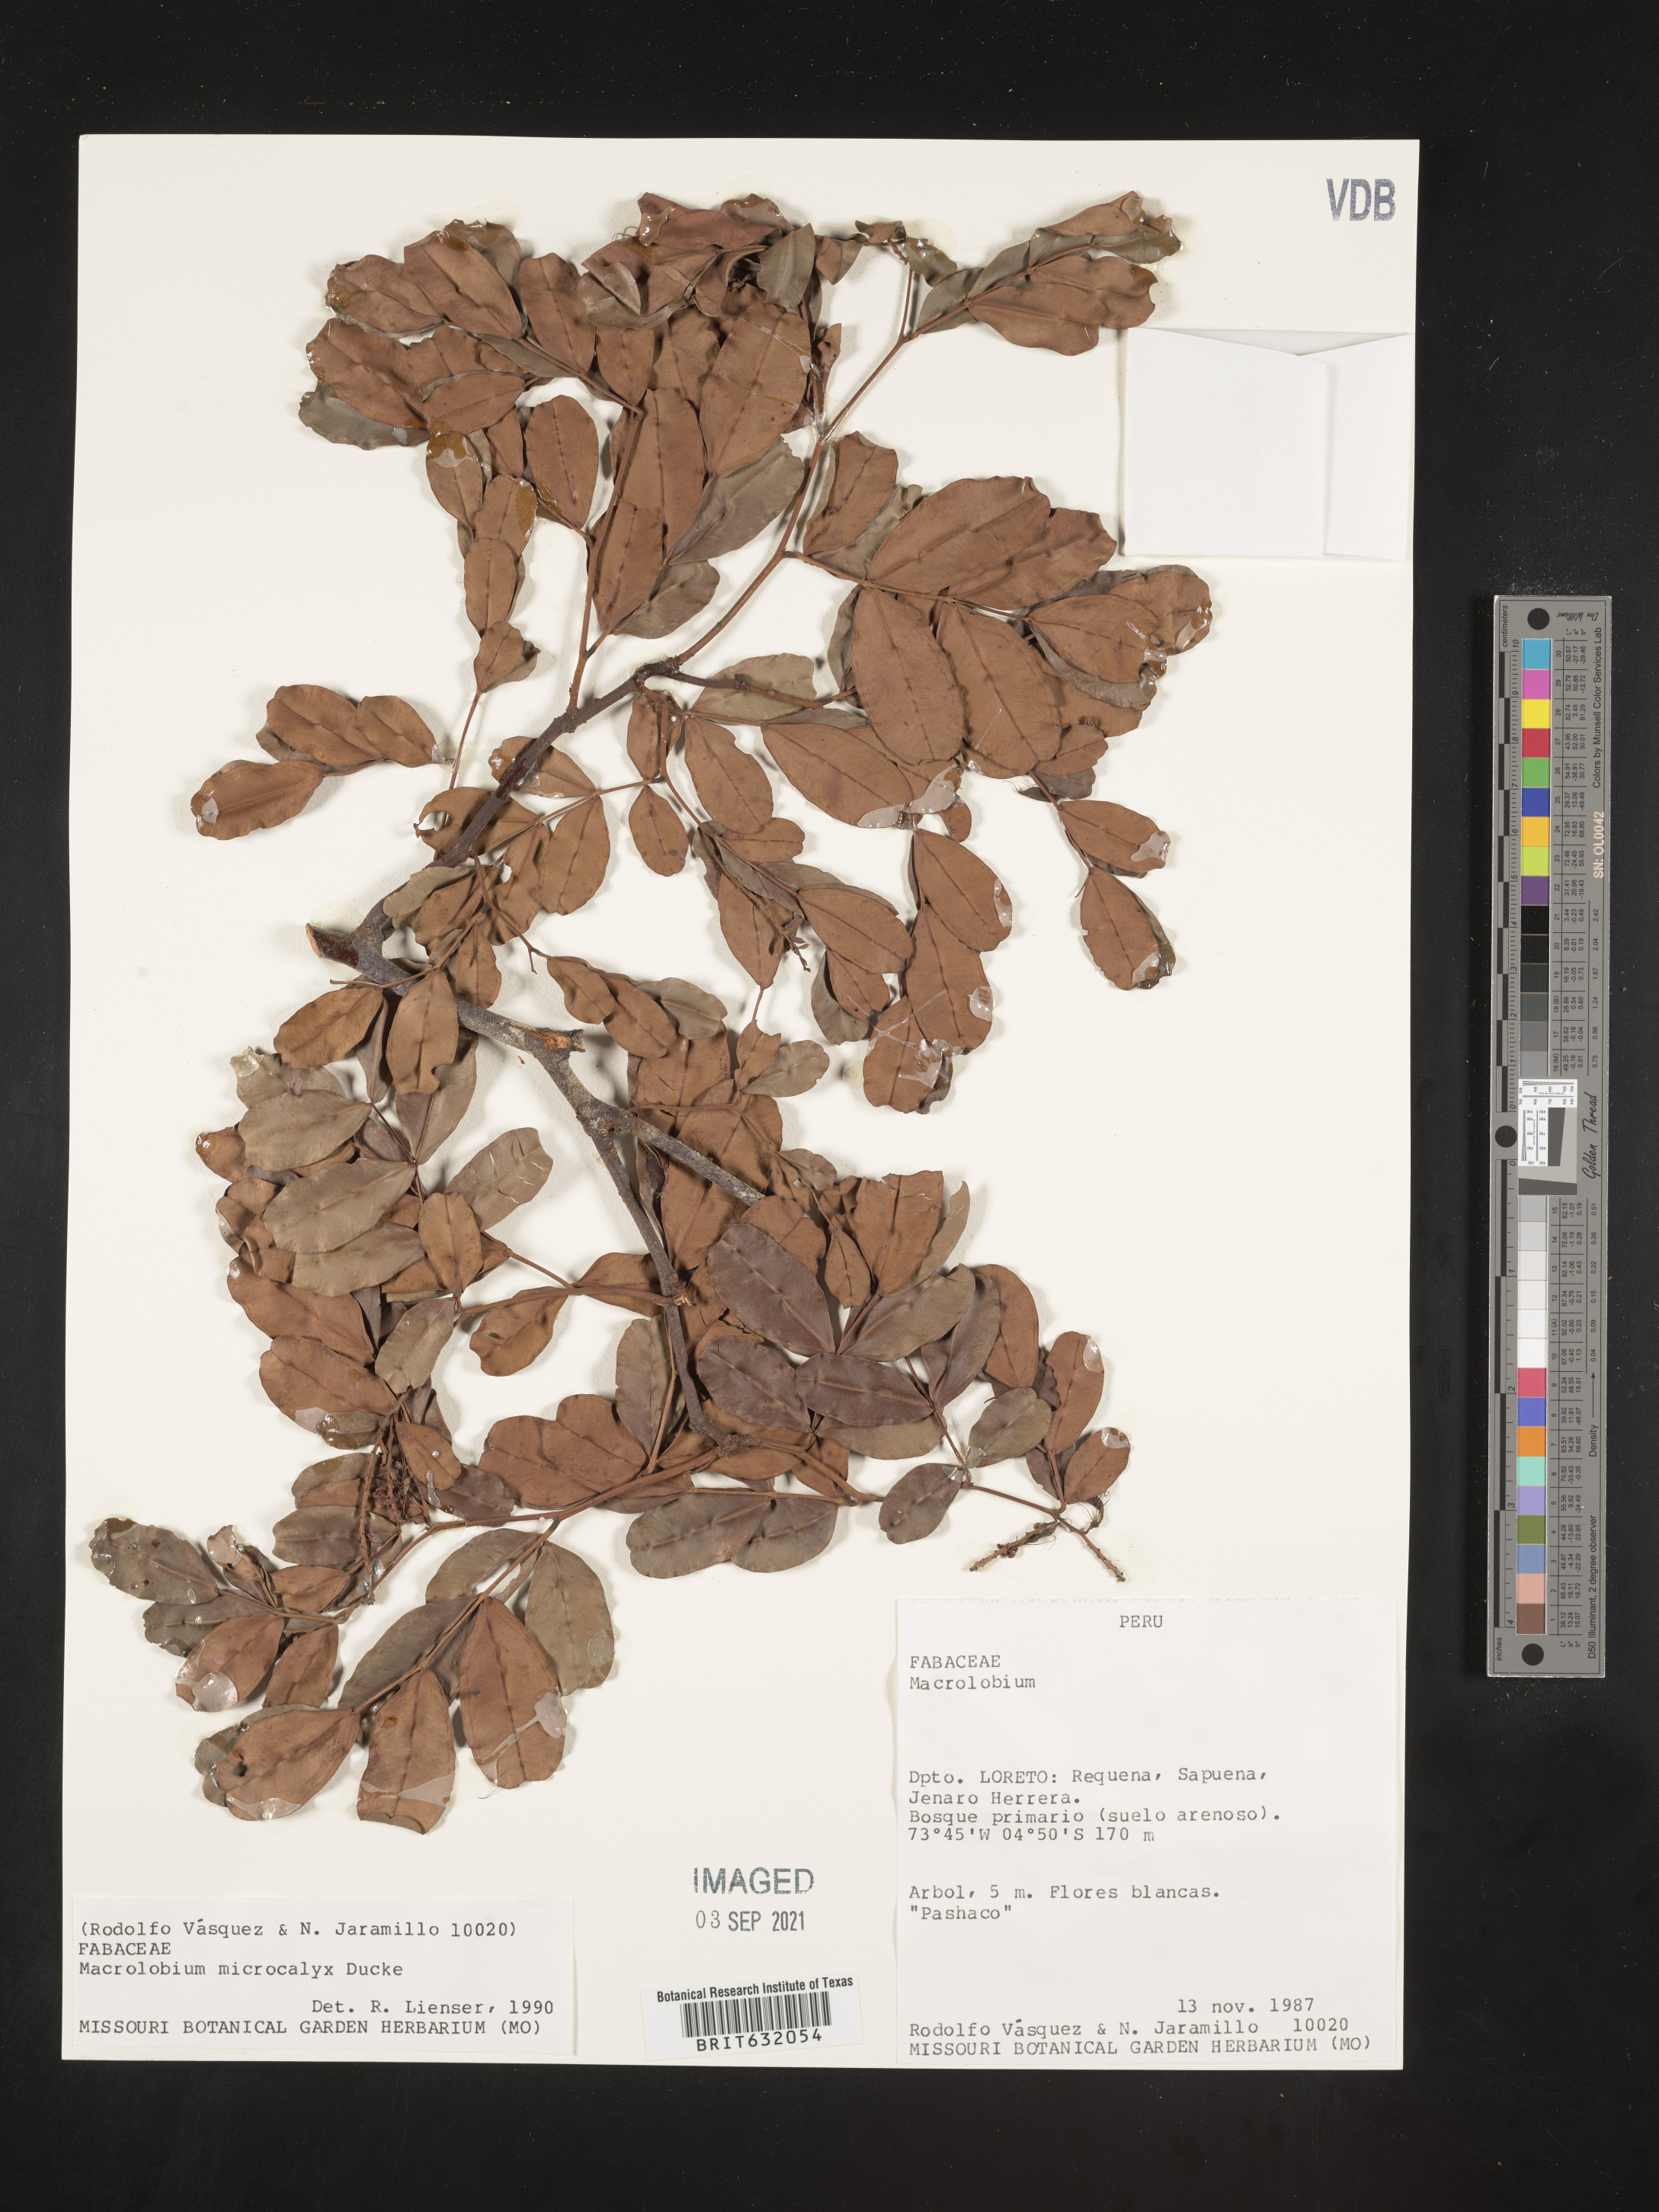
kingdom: Plantae
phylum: Tracheophyta
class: Magnoliopsida
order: Fabales
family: Fabaceae
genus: Macrolobium
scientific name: Macrolobium
